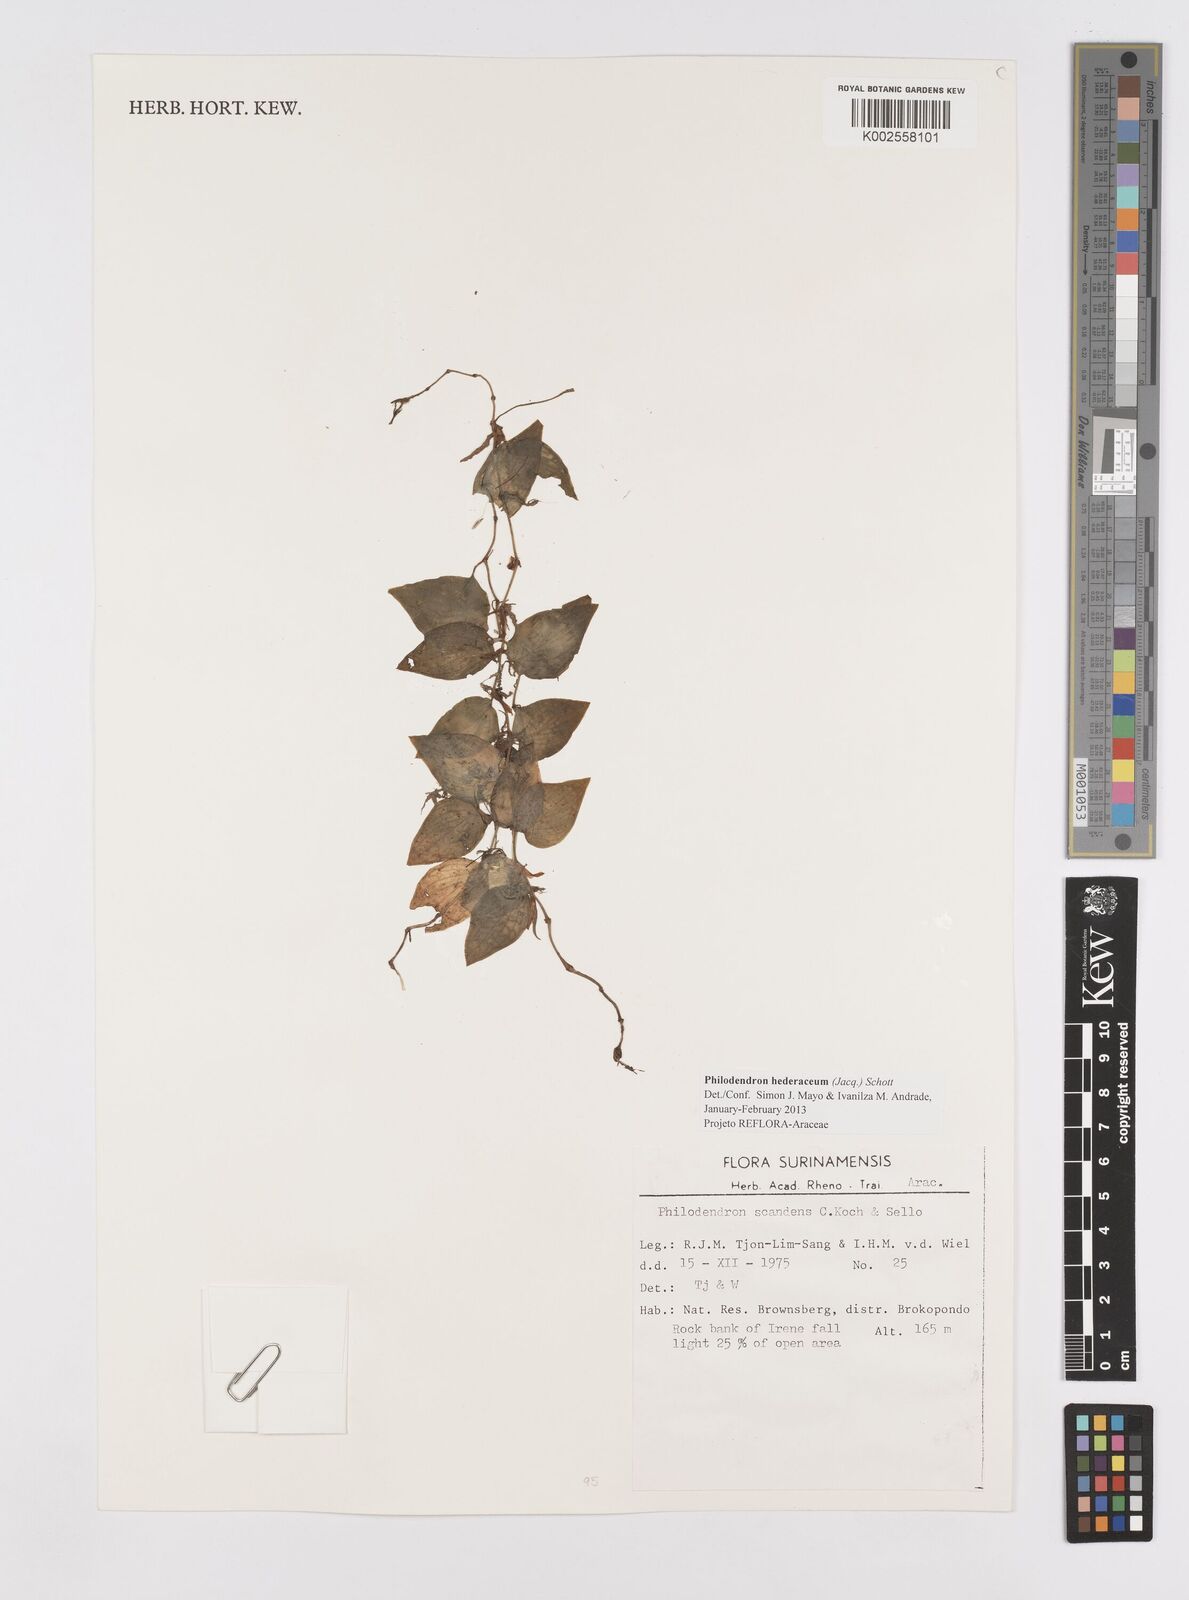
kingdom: Plantae
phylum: Tracheophyta
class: Liliopsida
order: Alismatales
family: Araceae
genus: Philodendron
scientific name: Philodendron hederaceum
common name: Vilevine
